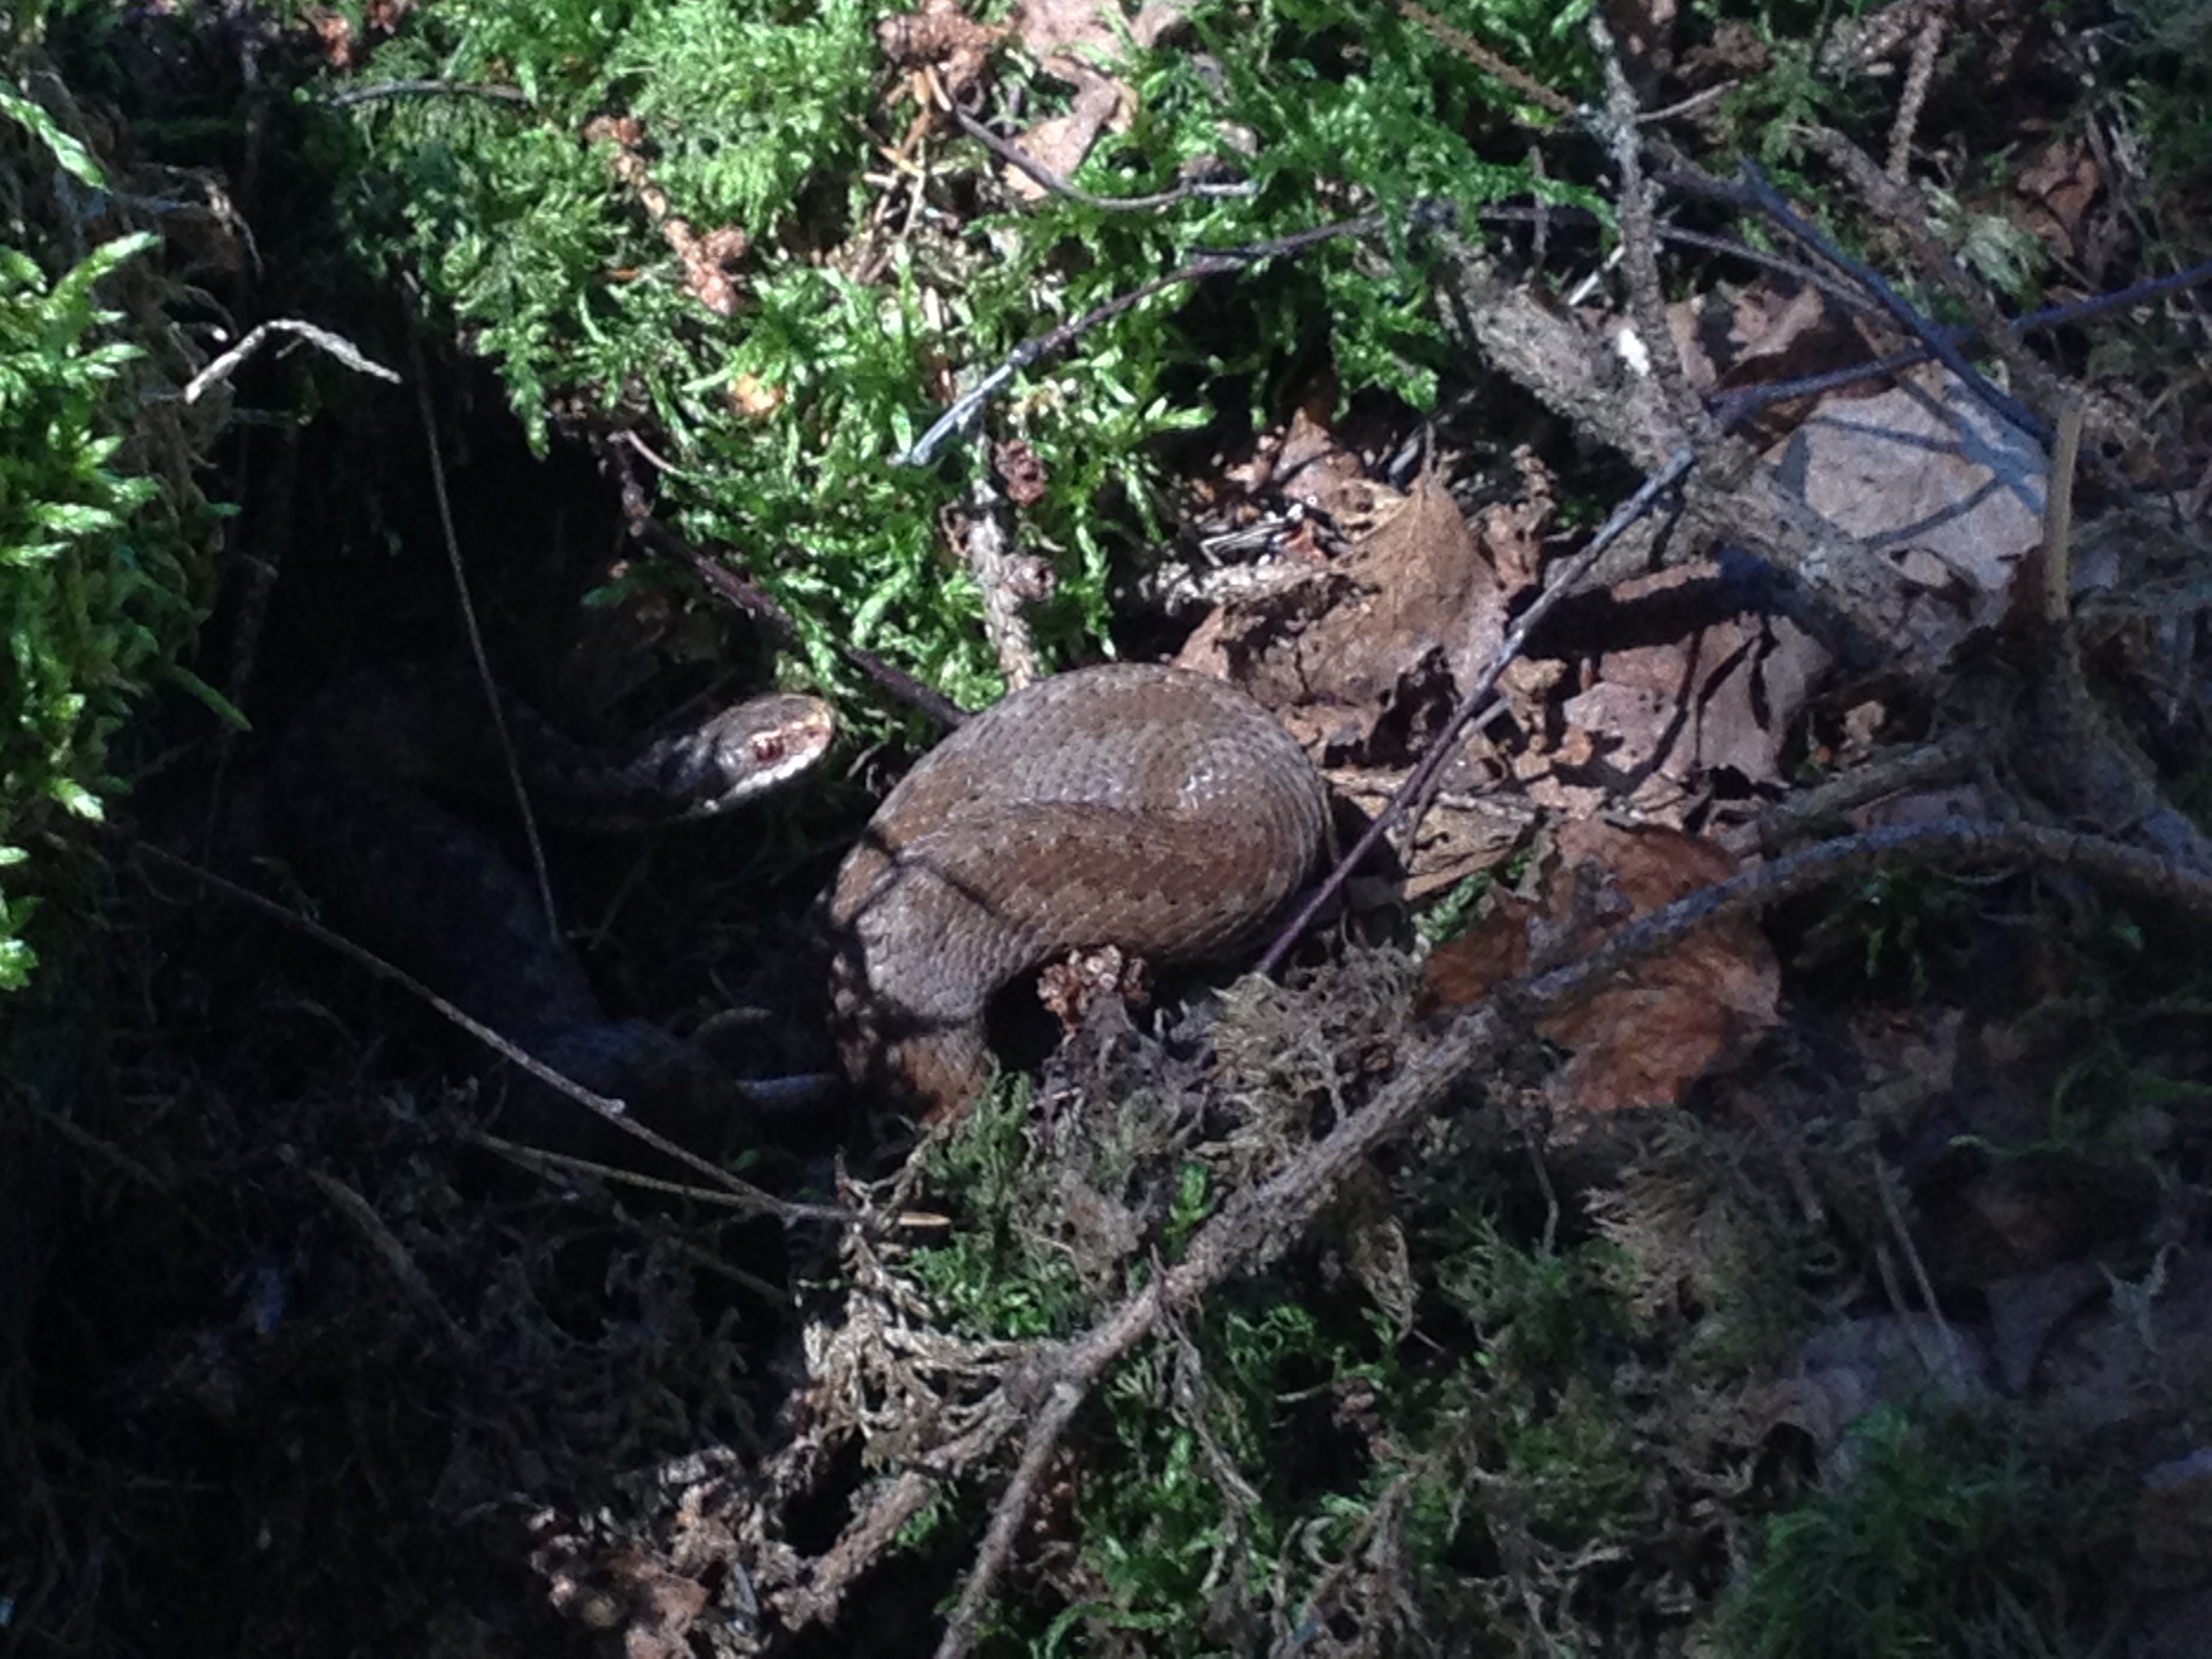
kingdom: Animalia
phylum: Chordata
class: Squamata
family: Viperidae
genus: Vipera
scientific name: Vipera berus
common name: Adder
